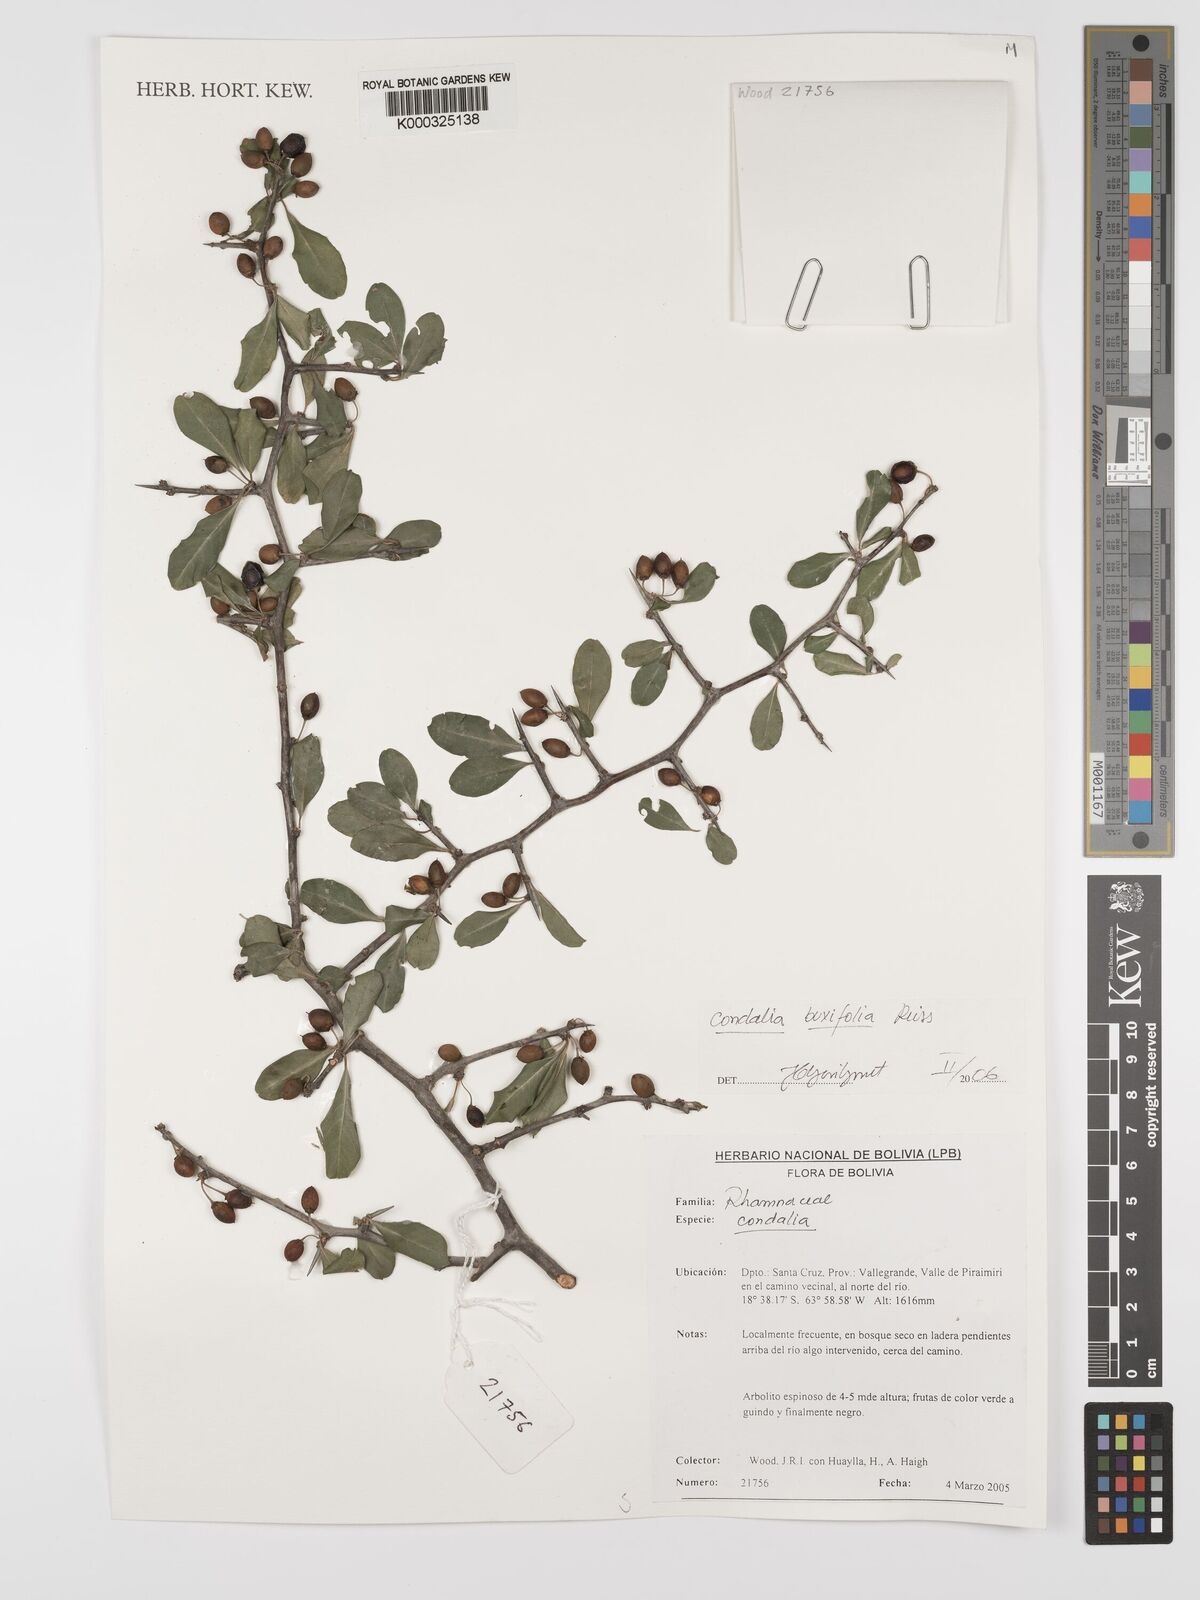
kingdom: Plantae
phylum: Tracheophyta
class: Magnoliopsida
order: Rosales
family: Rhamnaceae
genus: Condalia
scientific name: Condalia buxifolia
